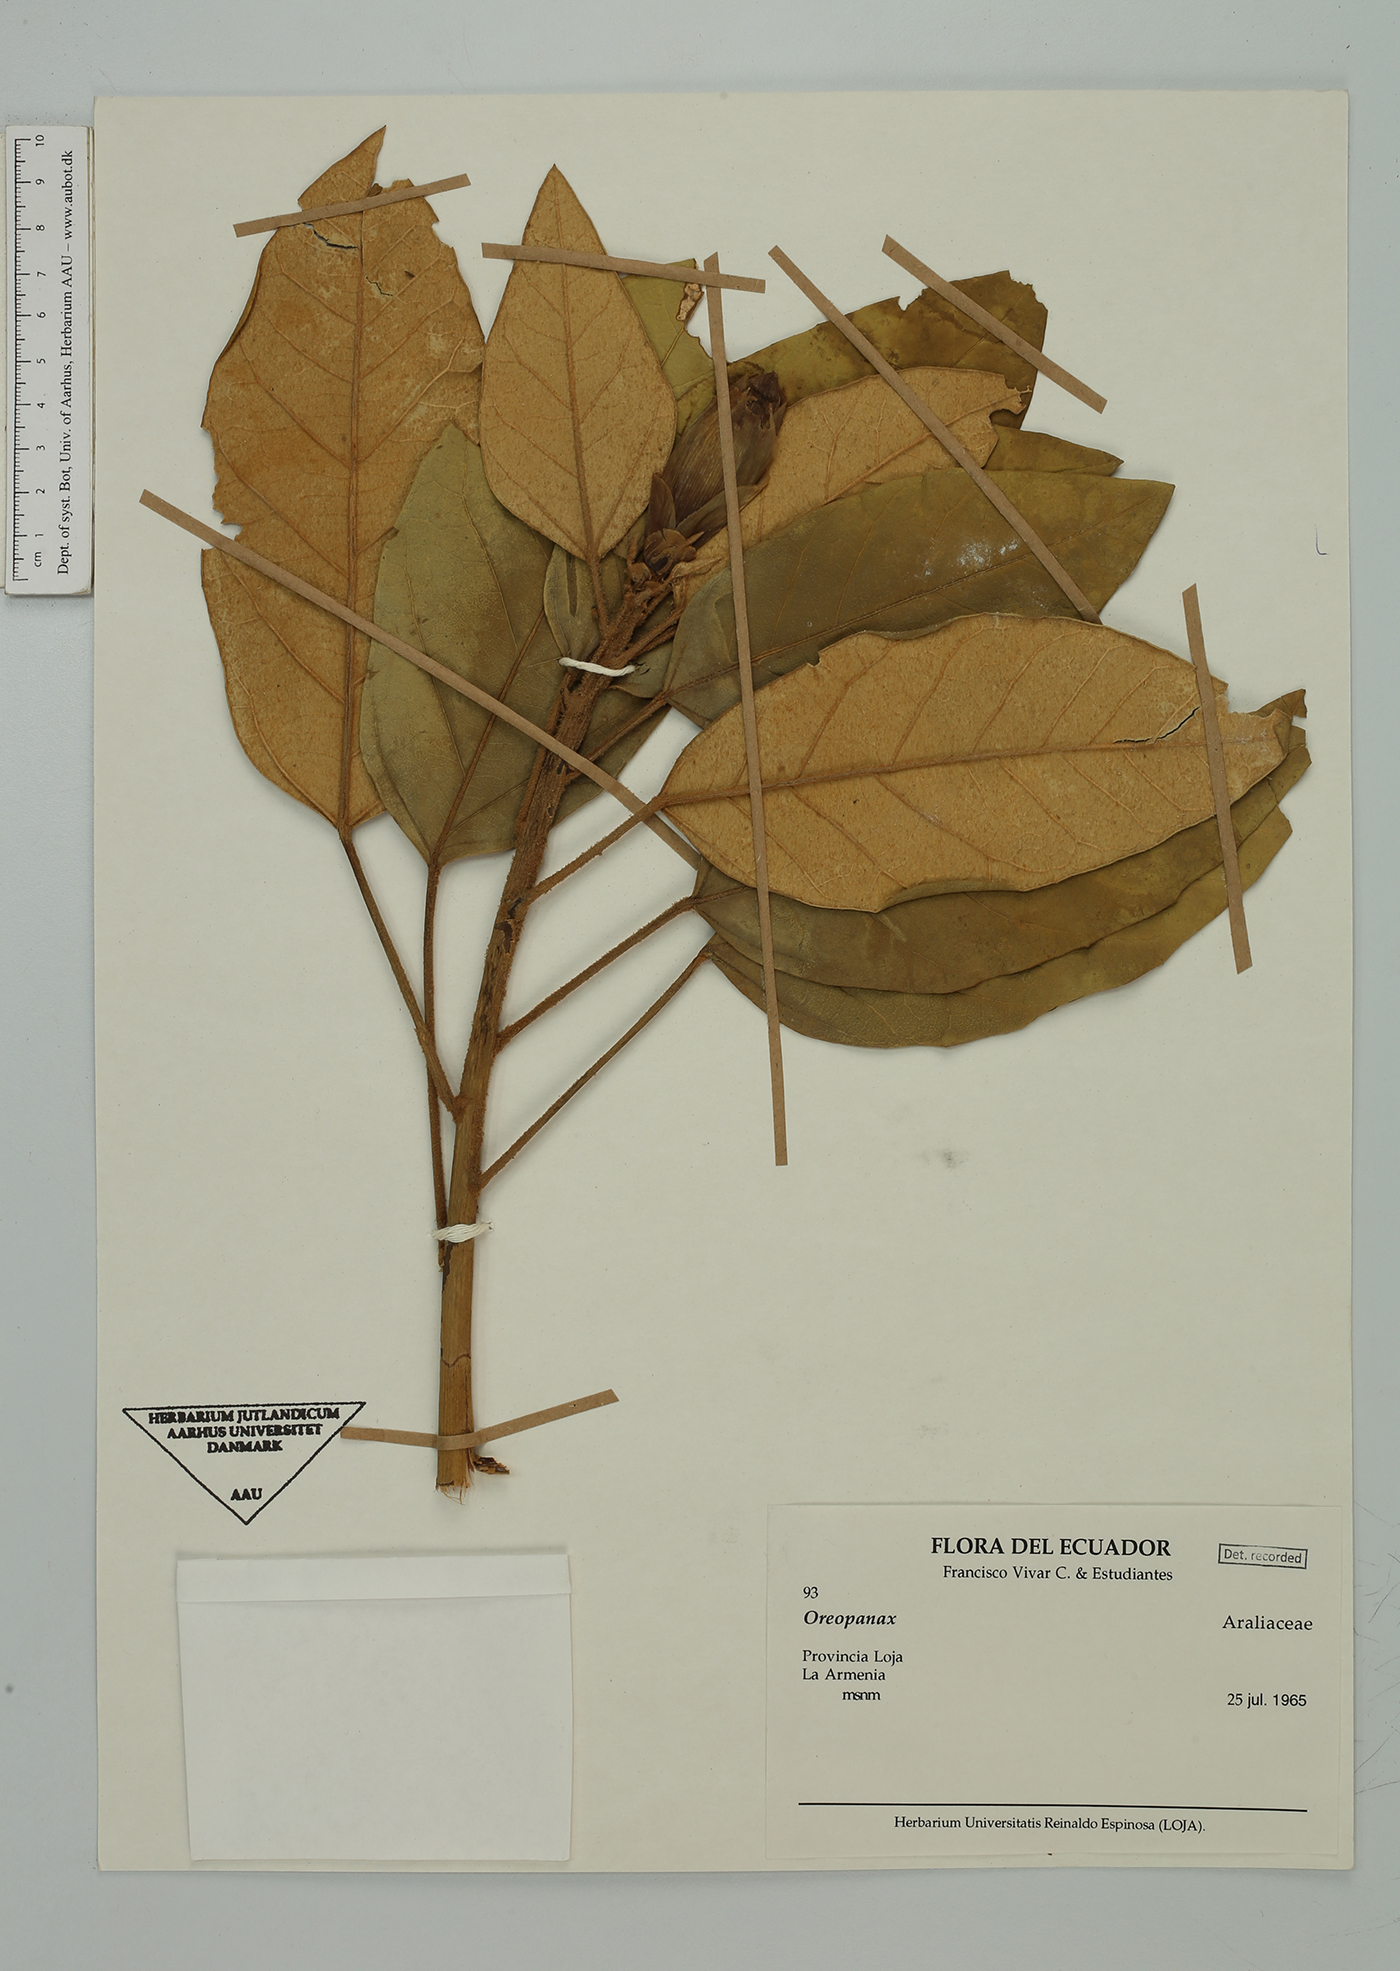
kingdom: Plantae
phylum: Tracheophyta
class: Magnoliopsida
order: Apiales
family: Araliaceae
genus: Oreopanax
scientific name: Oreopanax
